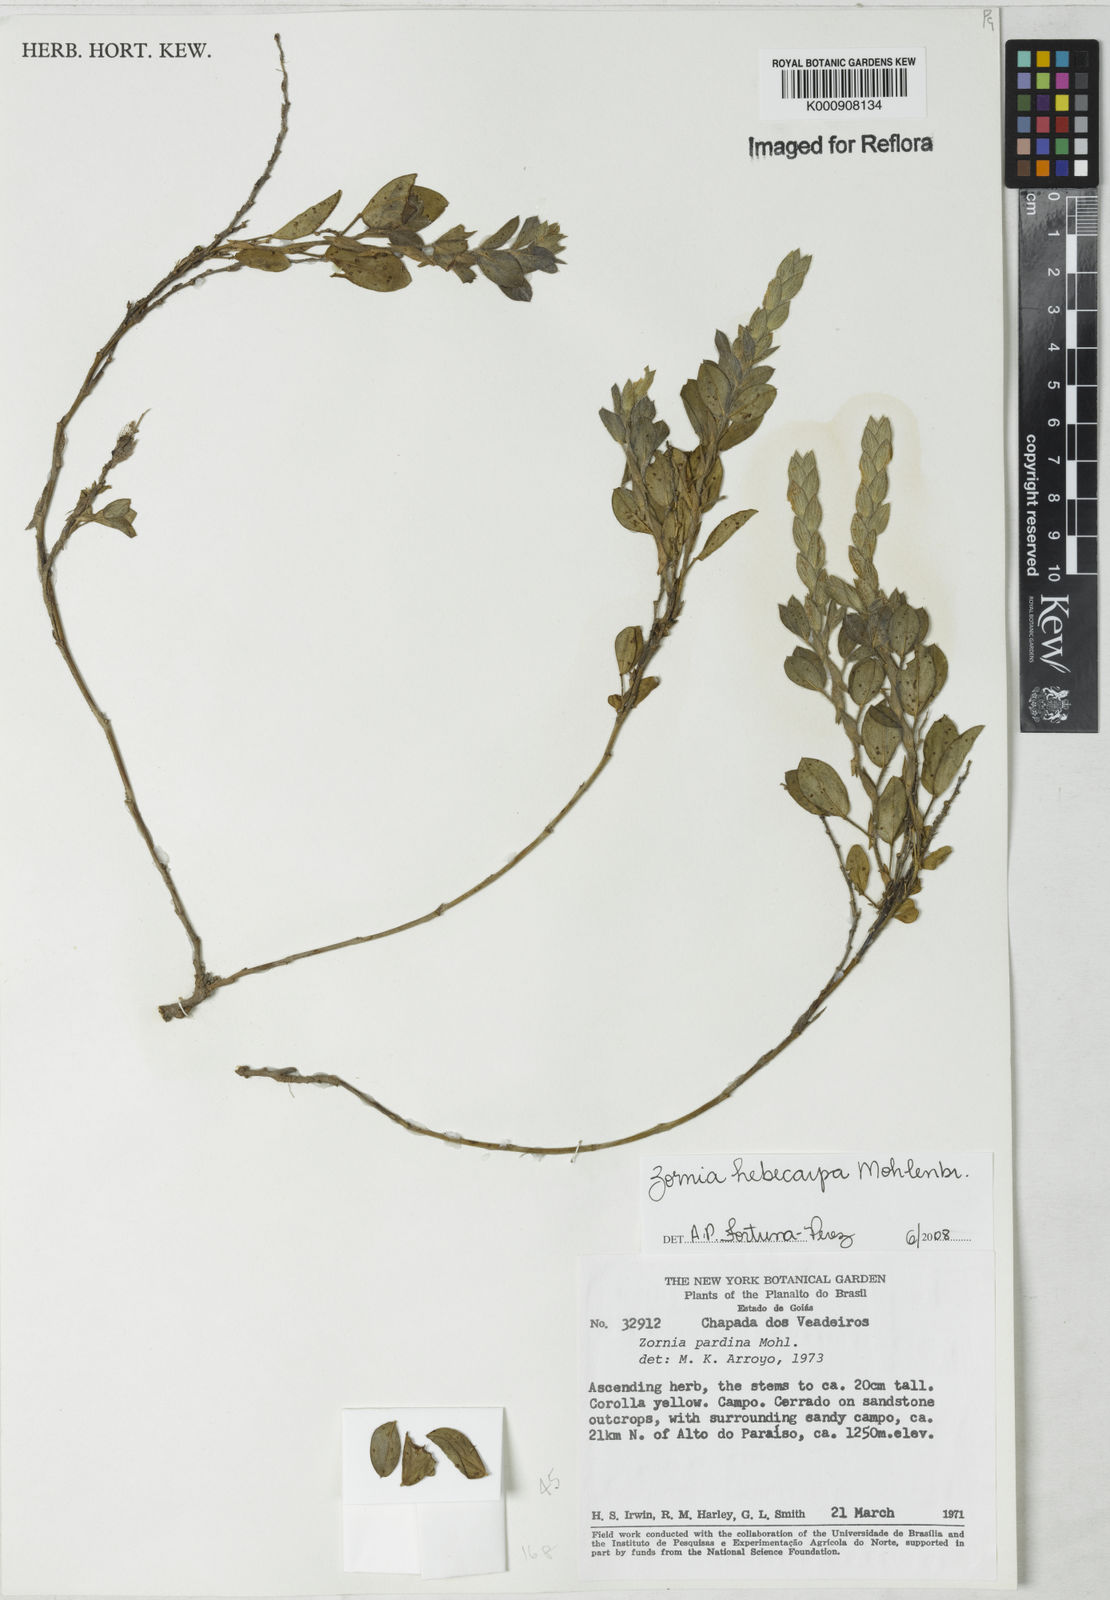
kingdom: Plantae
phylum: Tracheophyta
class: Magnoliopsida
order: Fabales
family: Fabaceae
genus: Zornia
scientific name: Zornia hebecarpa
